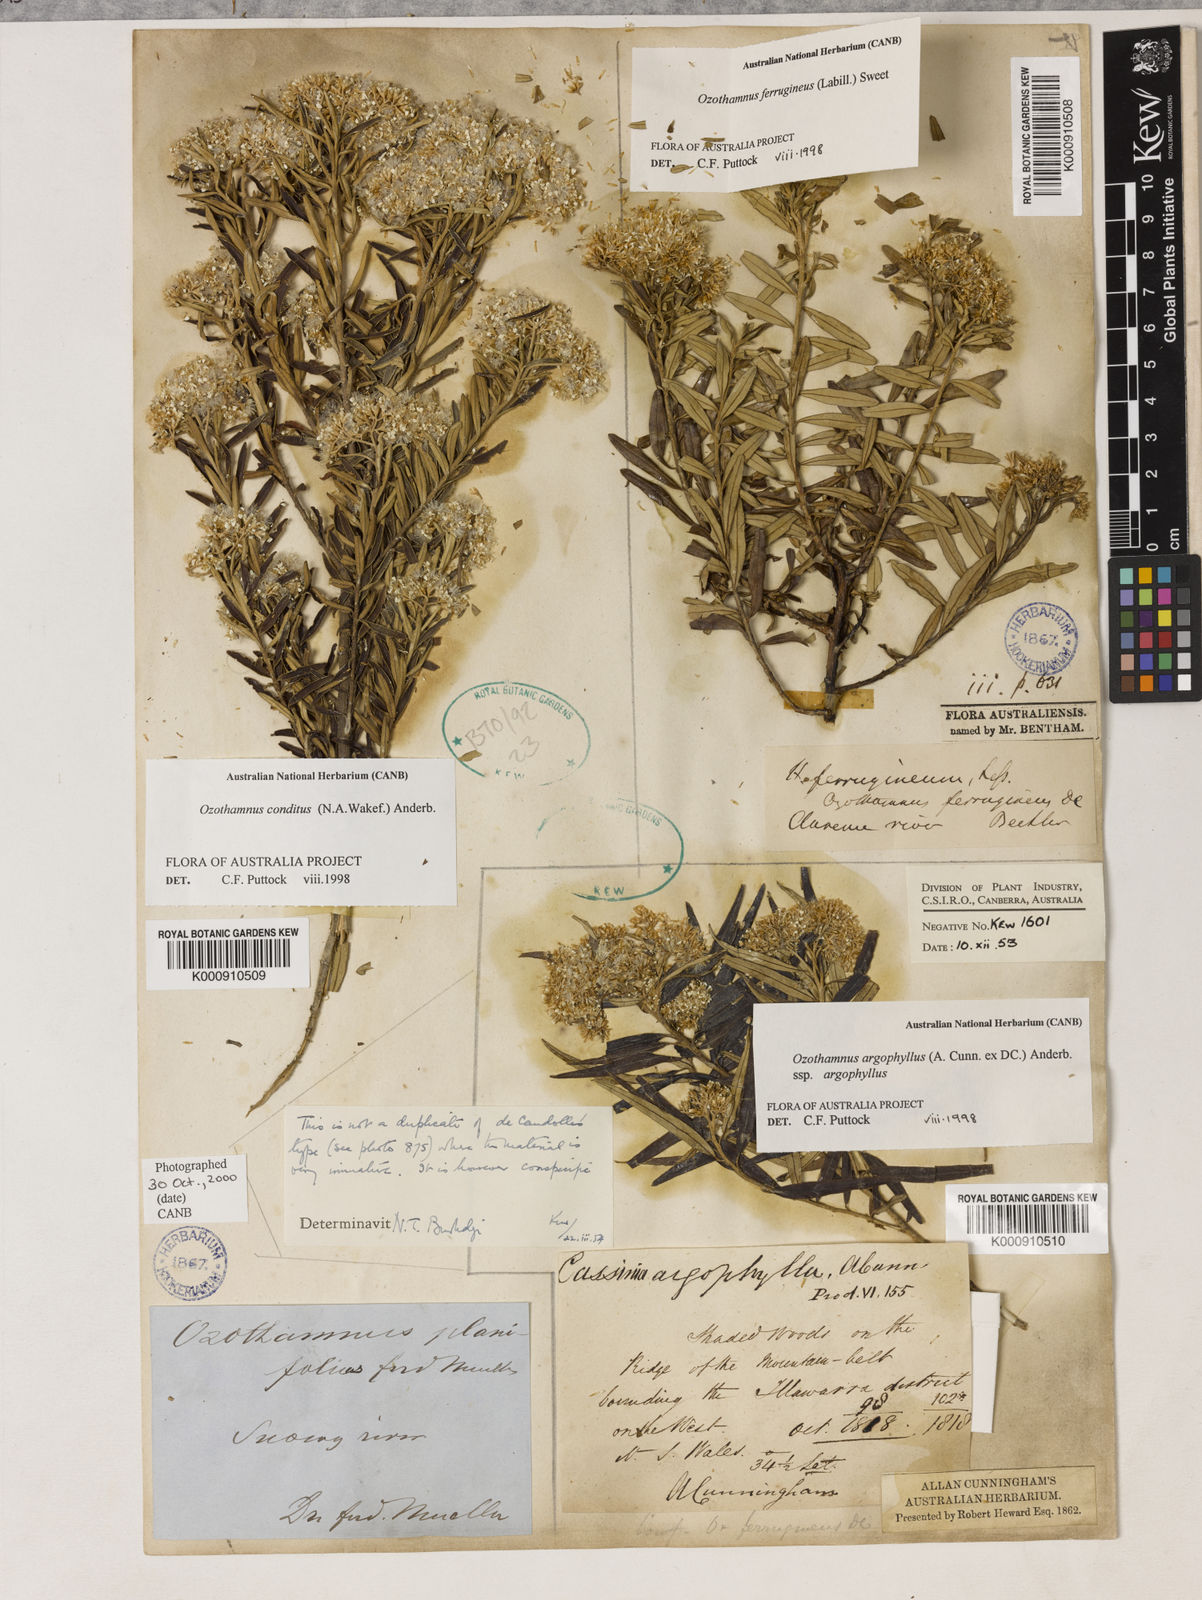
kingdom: Plantae
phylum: Tracheophyta
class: Magnoliopsida
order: Asterales
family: Asteraceae
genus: Ozothamnus
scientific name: Ozothamnus argophyllus
